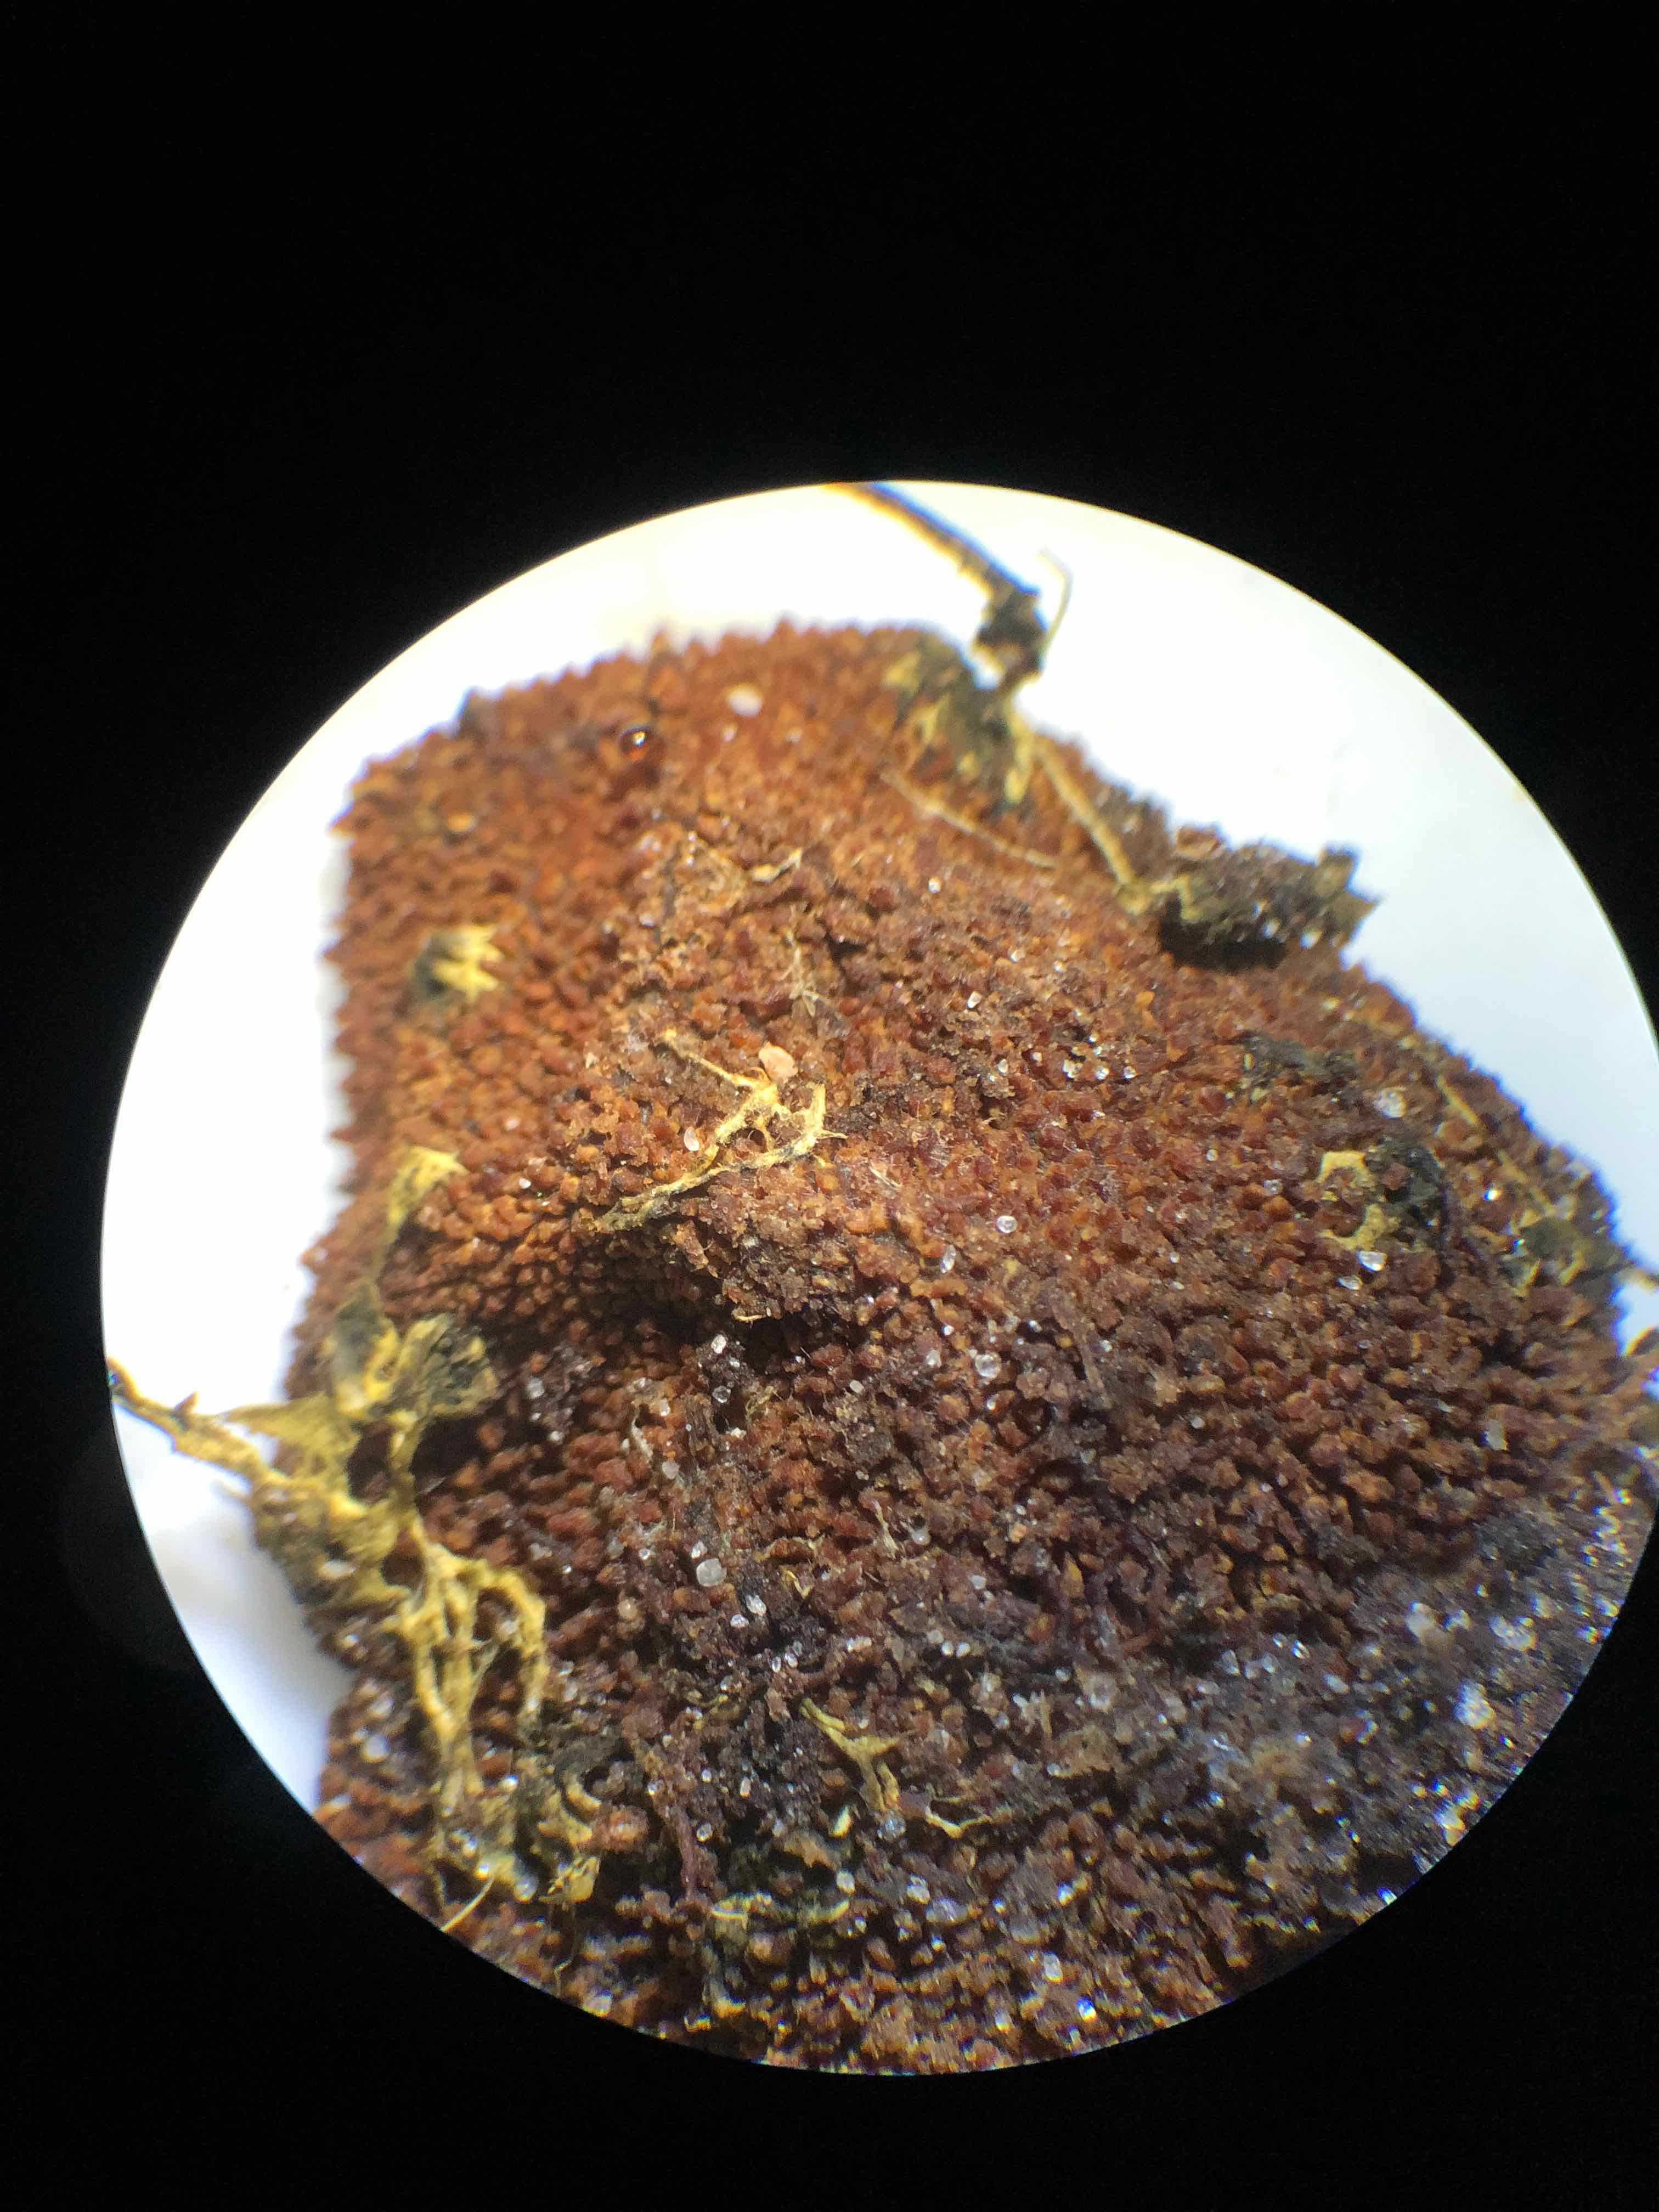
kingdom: Fungi
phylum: Ascomycota
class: Eurotiomycetes
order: Eurotiales
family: Elaphomycetaceae
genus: Elaphomyces
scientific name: Elaphomyces muricatus
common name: vortet hjortetrøffel
